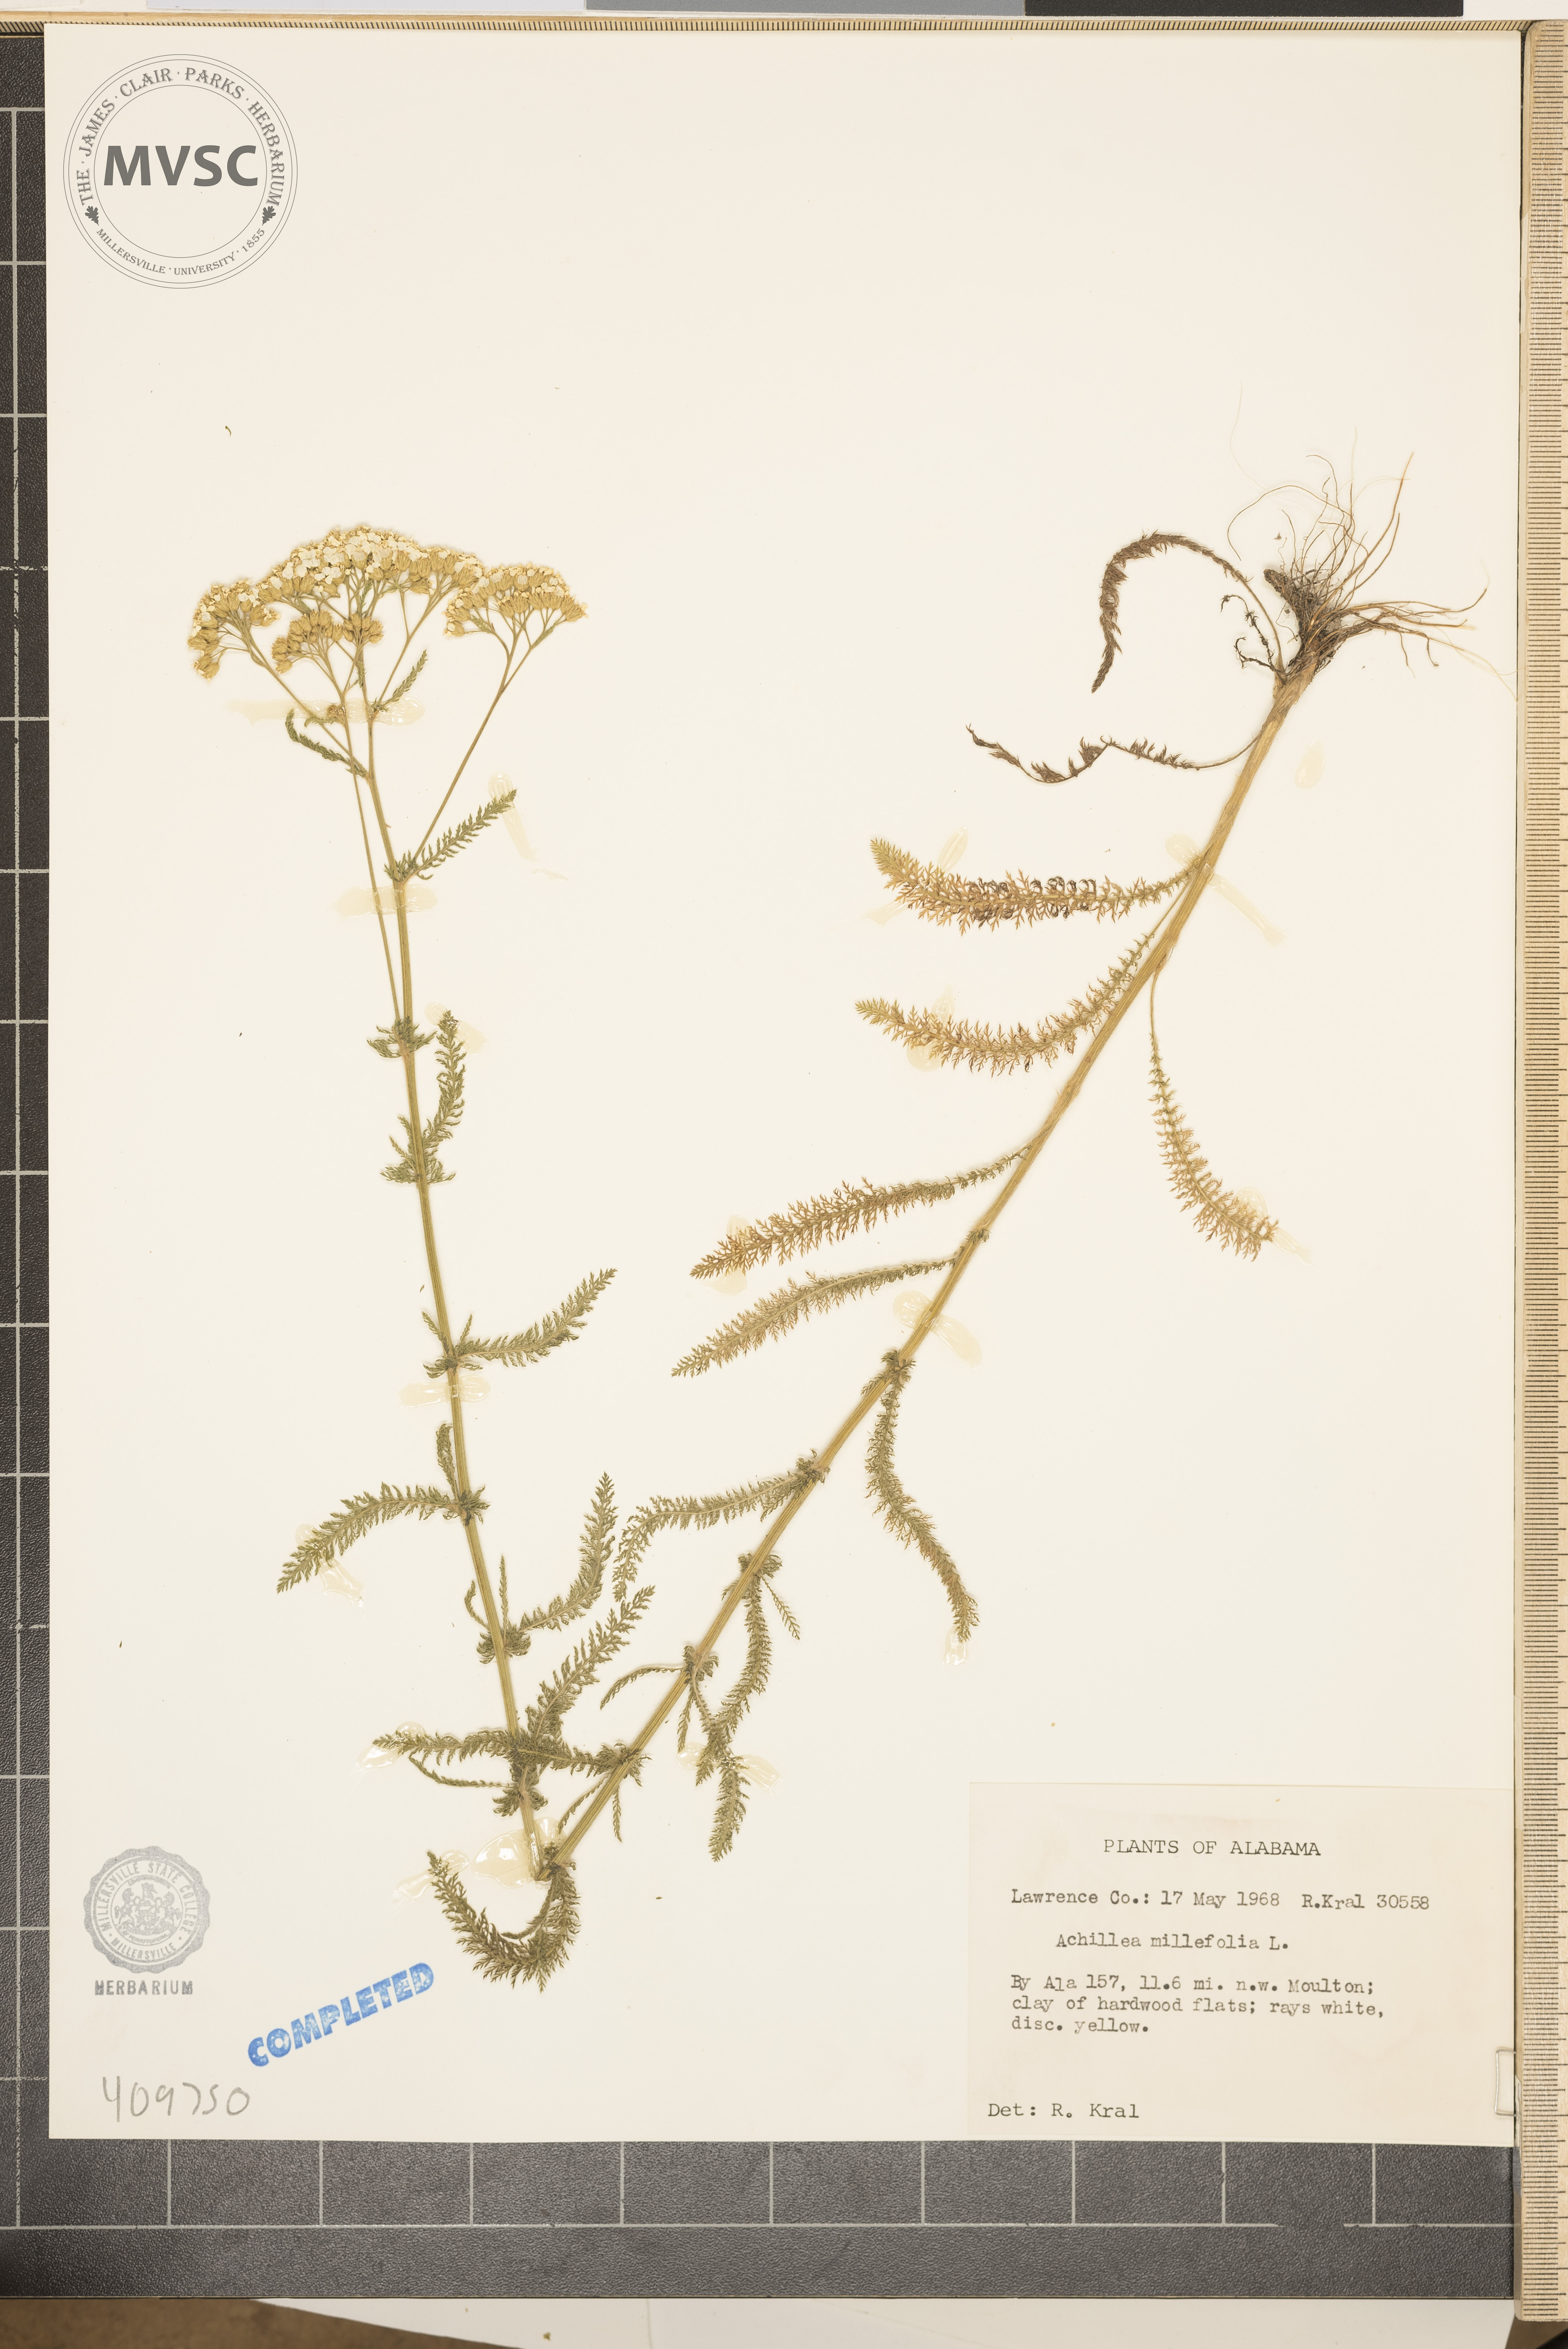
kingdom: Plantae
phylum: Tracheophyta
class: Magnoliopsida
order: Asterales
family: Asteraceae
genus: Achillea
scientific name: Achillea millefolium
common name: Yarrow
